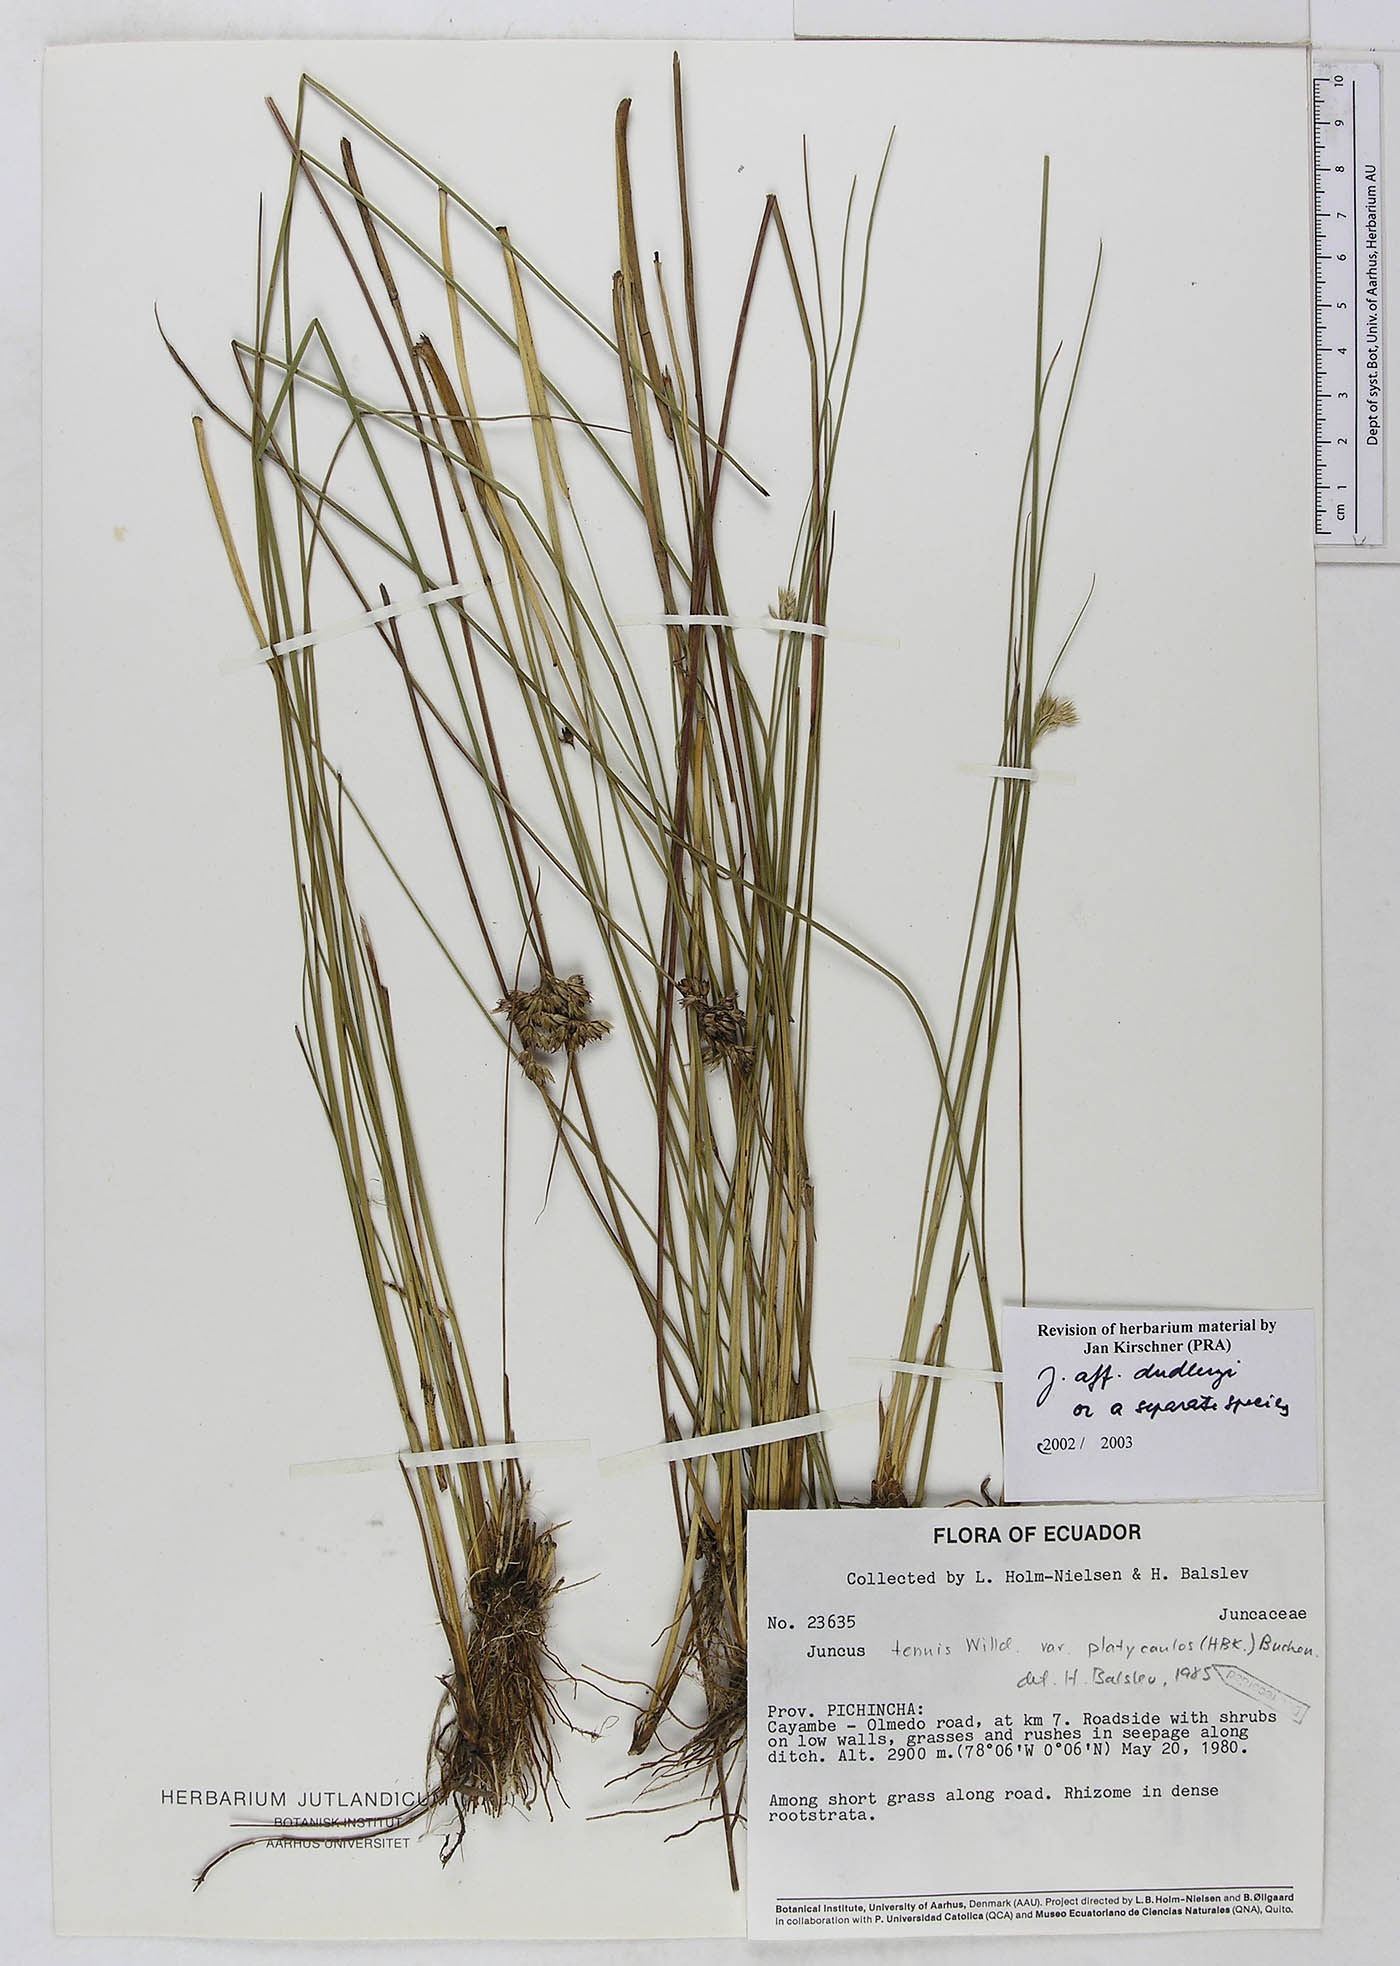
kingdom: Plantae
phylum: Tracheophyta
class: Liliopsida
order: Poales
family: Juncaceae
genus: Juncus
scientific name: Juncus dudleyi
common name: Dudley's rush
